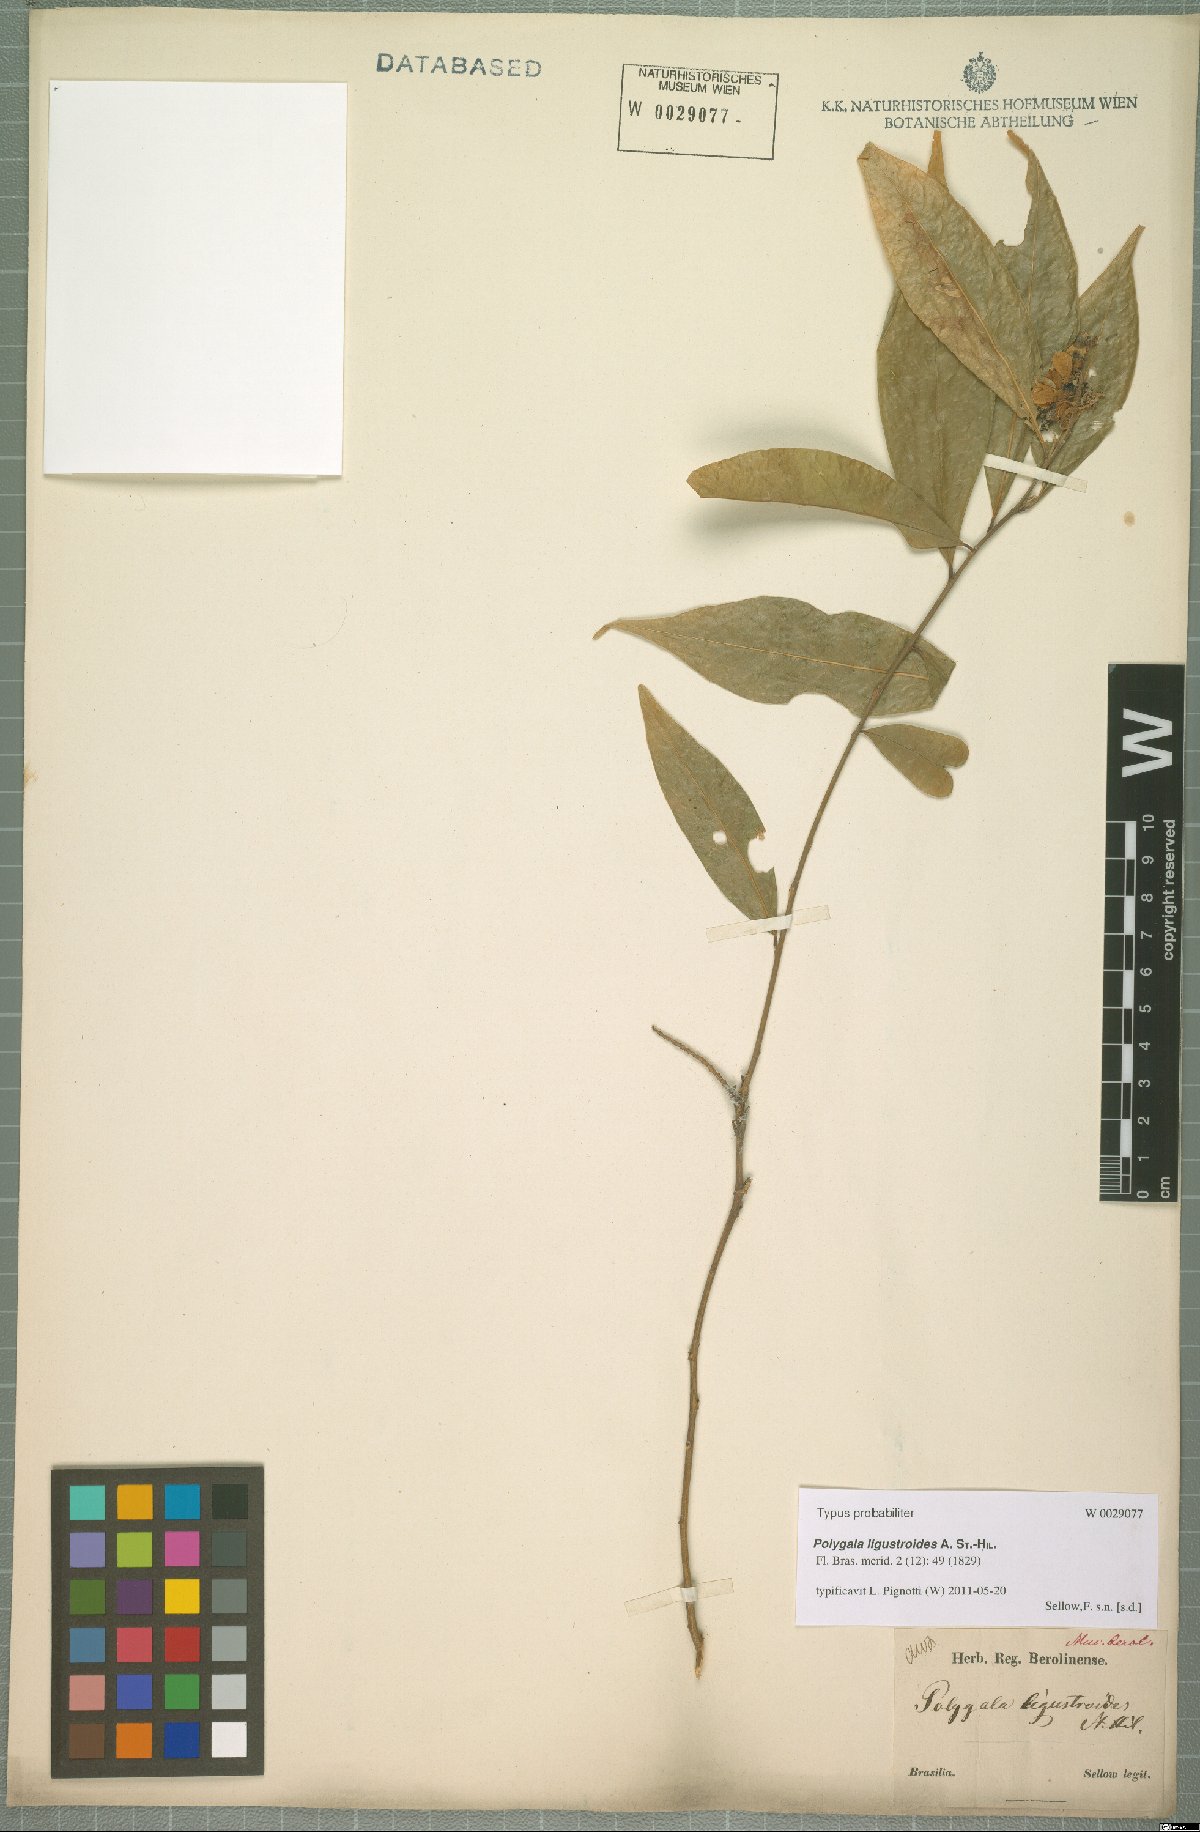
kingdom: Plantae
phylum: Tracheophyta
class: Magnoliopsida
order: Fabales
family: Polygalaceae
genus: Caamembeca
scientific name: Caamembeca oxyphylla
